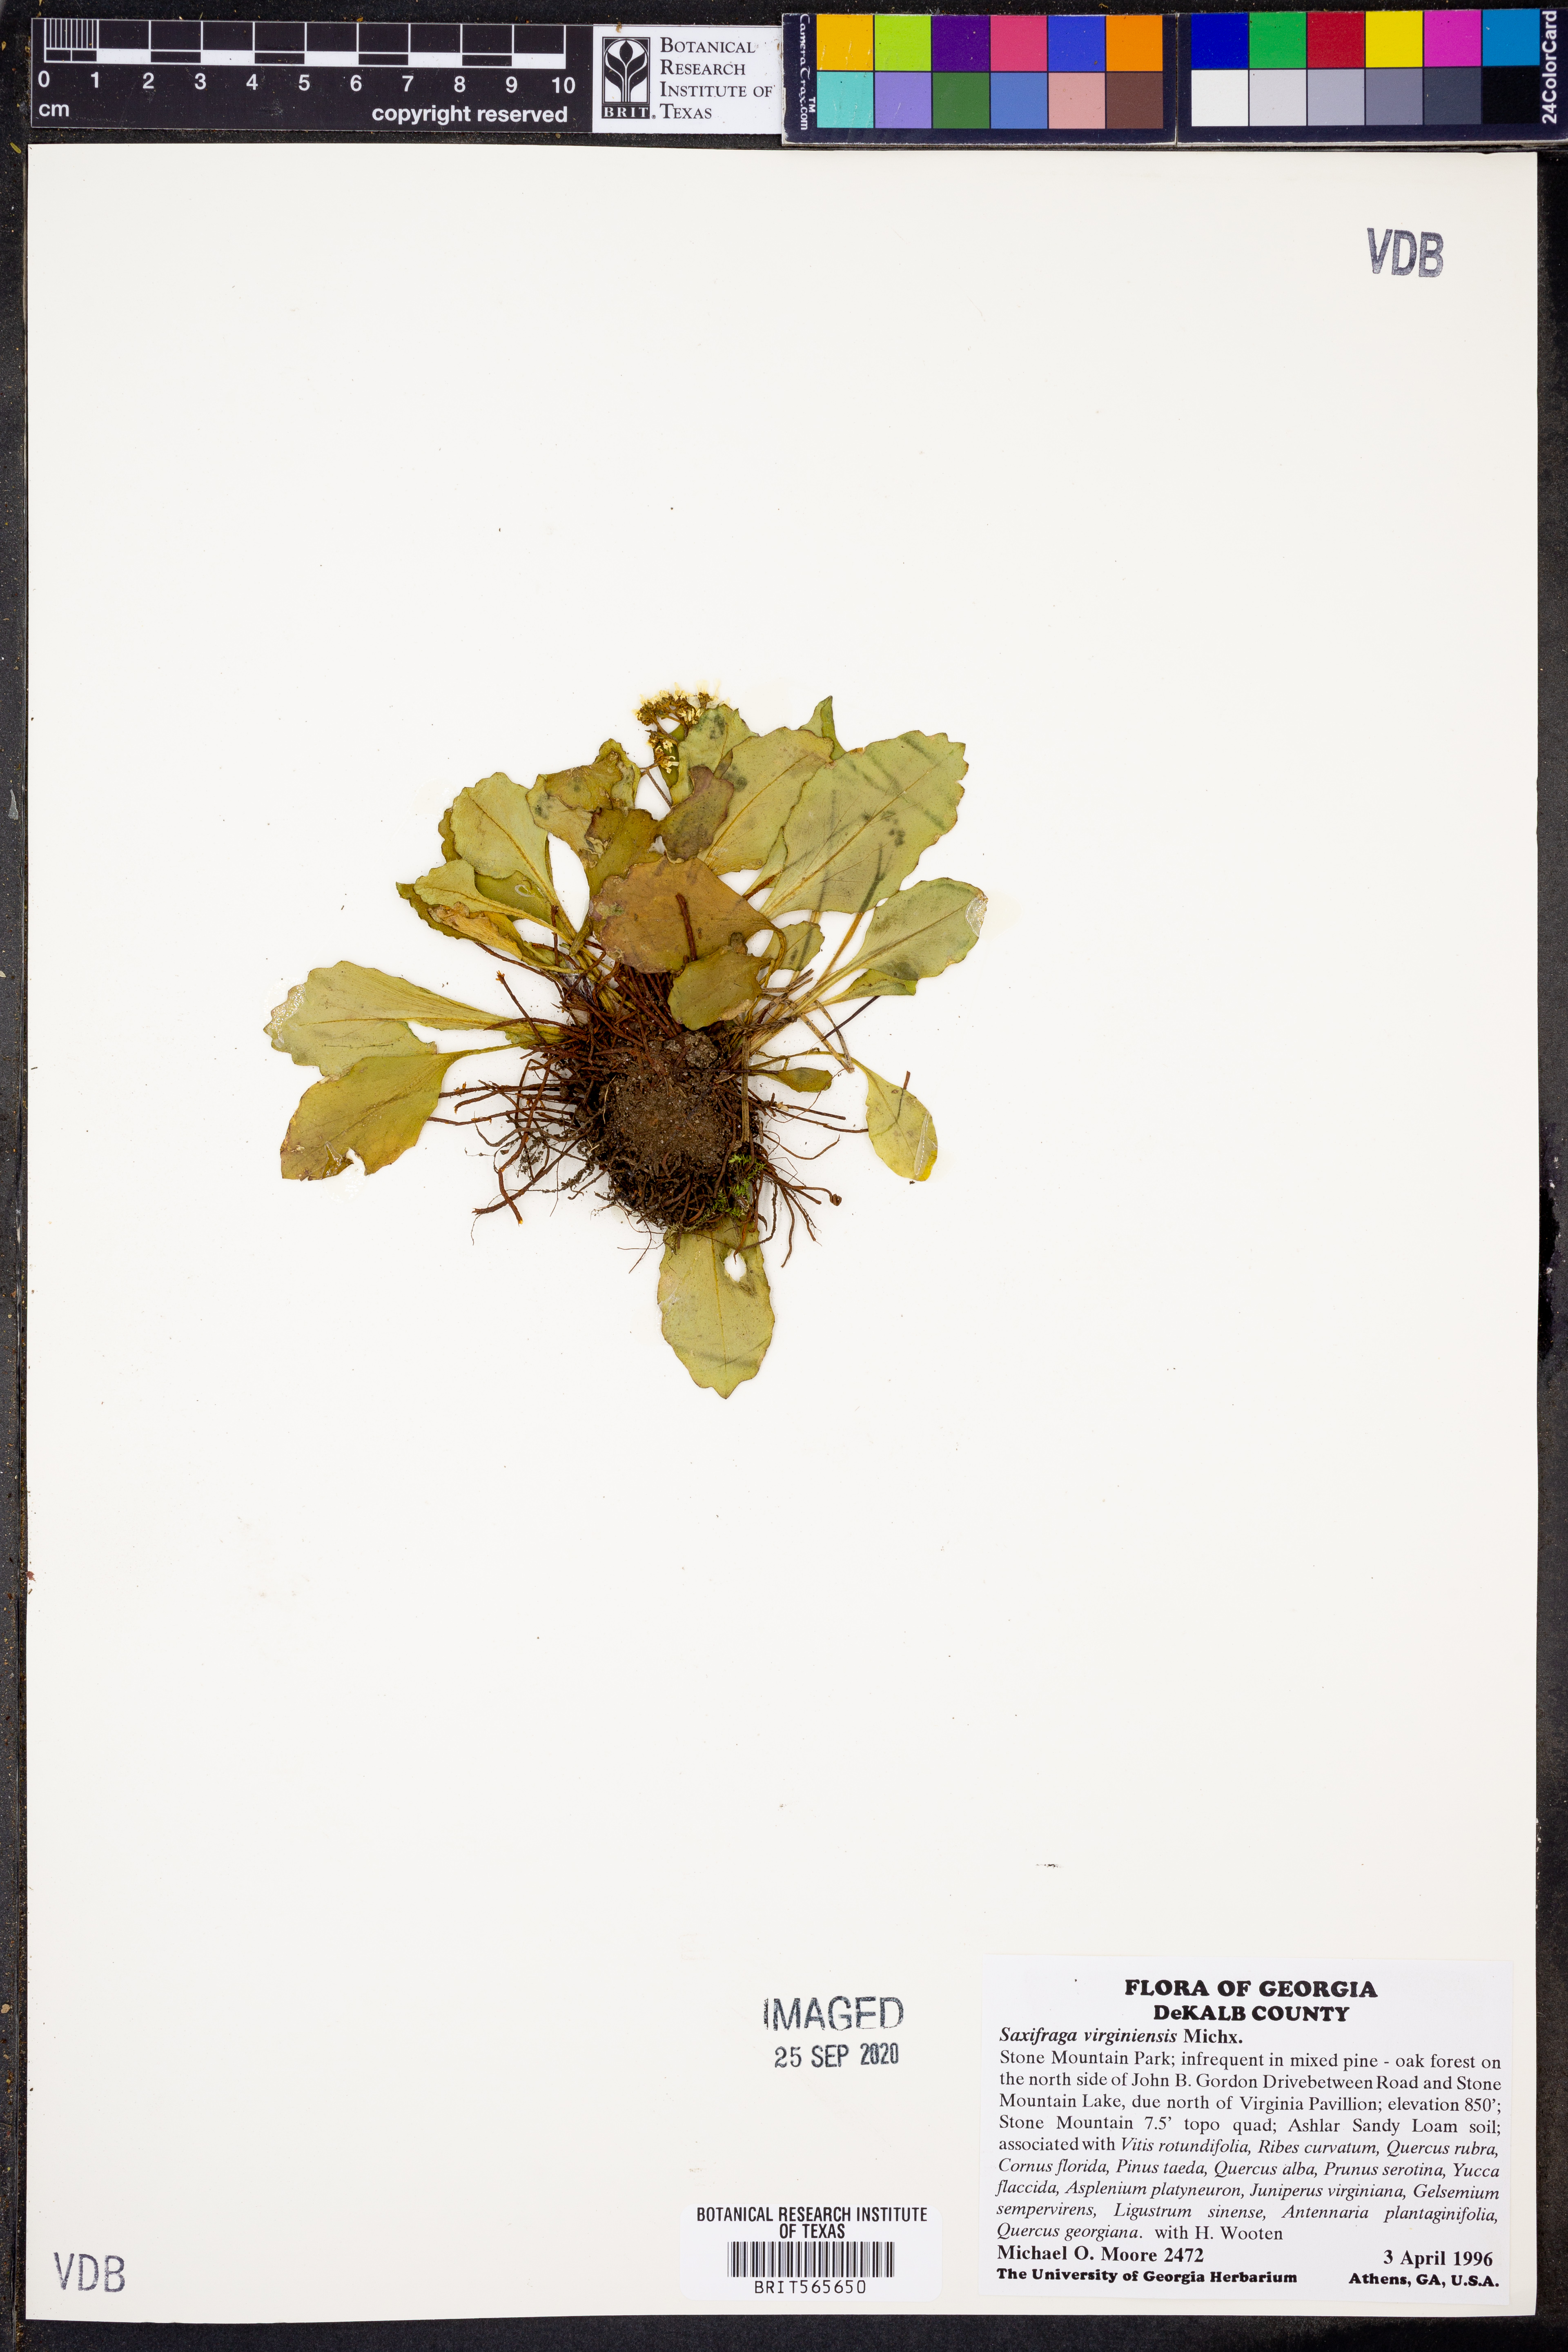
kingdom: Plantae
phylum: Tracheophyta
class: Magnoliopsida
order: Saxifragales
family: Saxifragaceae
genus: Micranthes
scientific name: Micranthes virginiensis
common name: Early saxifrage
